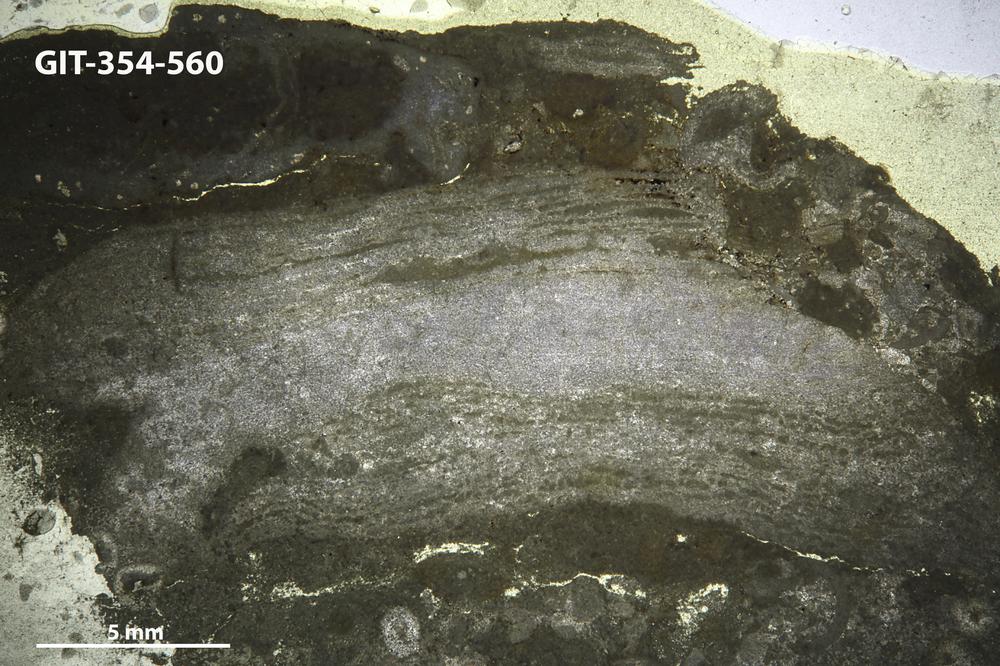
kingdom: Animalia
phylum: Porifera
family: Rosenellidae
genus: Rosenella
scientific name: Rosenella dentata
